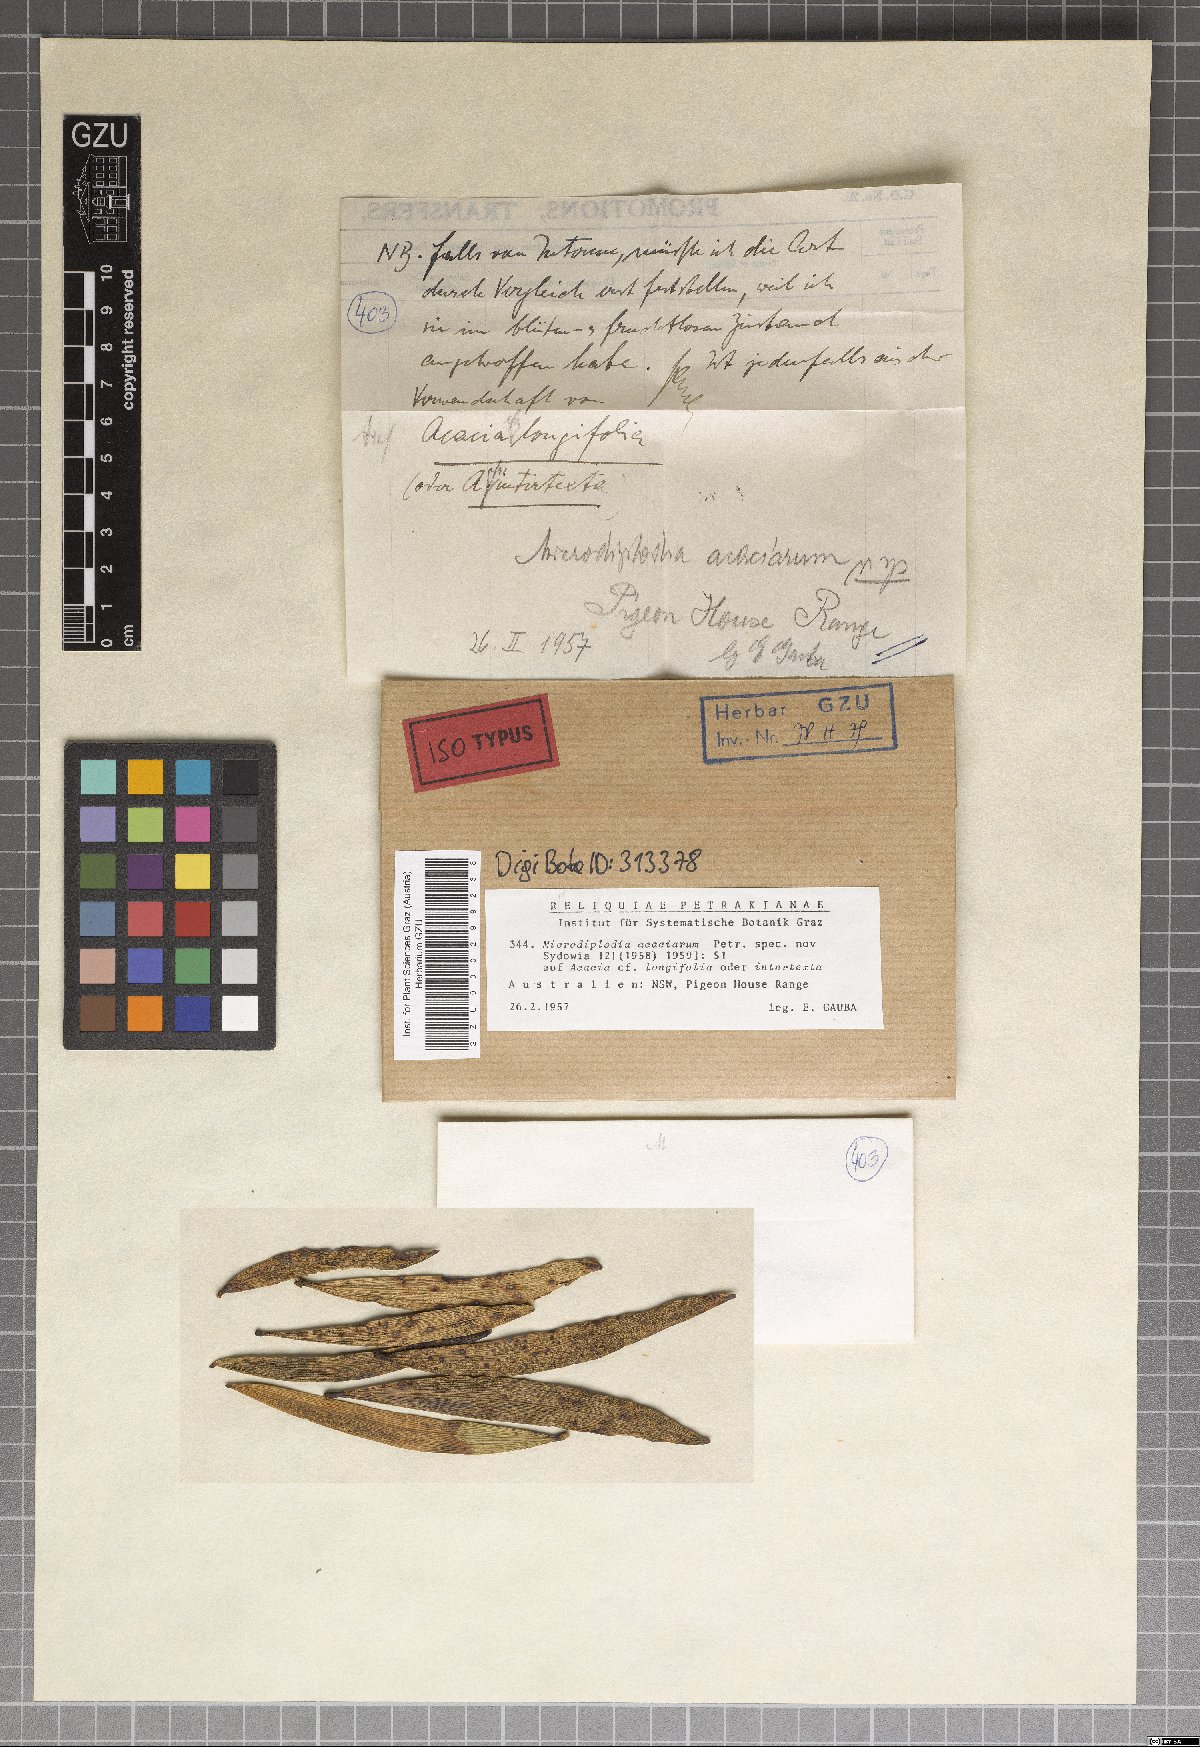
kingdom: Fungi
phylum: Ascomycota
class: Dothideomycetes
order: Botryosphaeriales
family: Botryosphaeriaceae
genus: Microdiplodia
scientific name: Microdiplodia acaciarum
